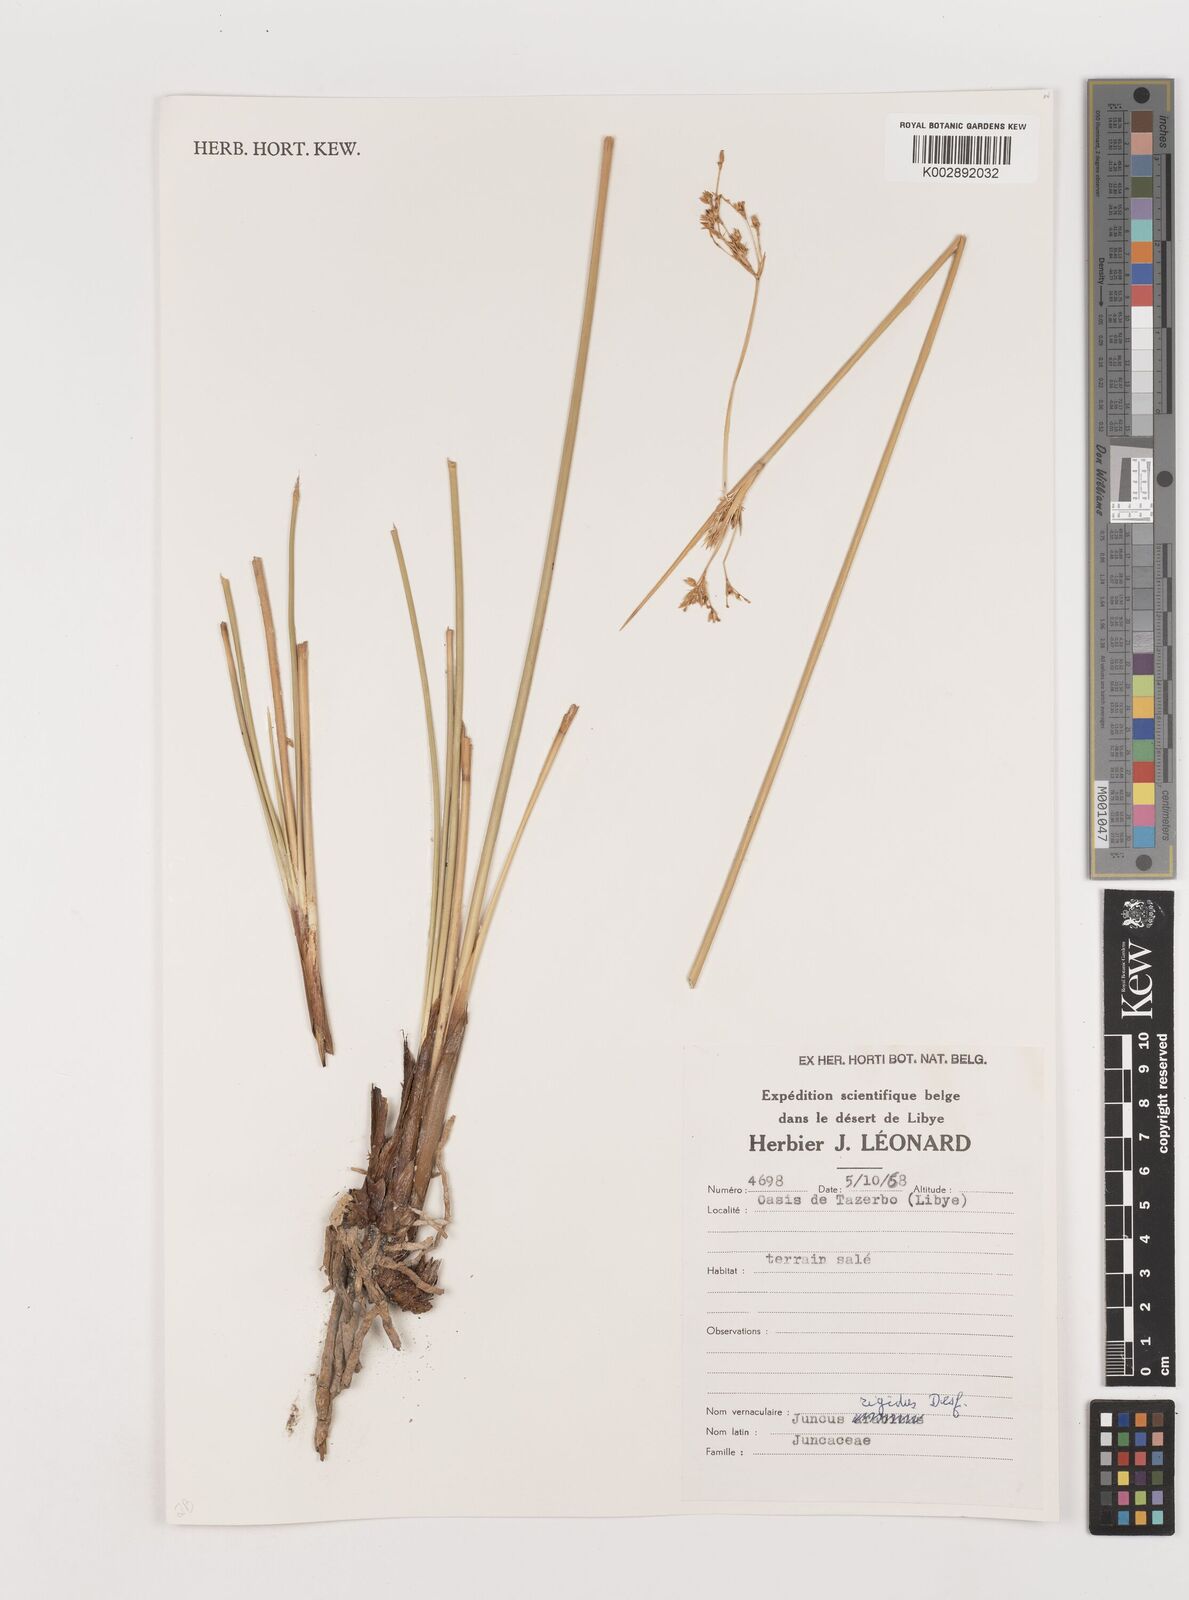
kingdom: Plantae
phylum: Tracheophyta
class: Liliopsida
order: Poales
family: Juncaceae
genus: Juncus
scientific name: Juncus rigidus
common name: Hard sea rush
